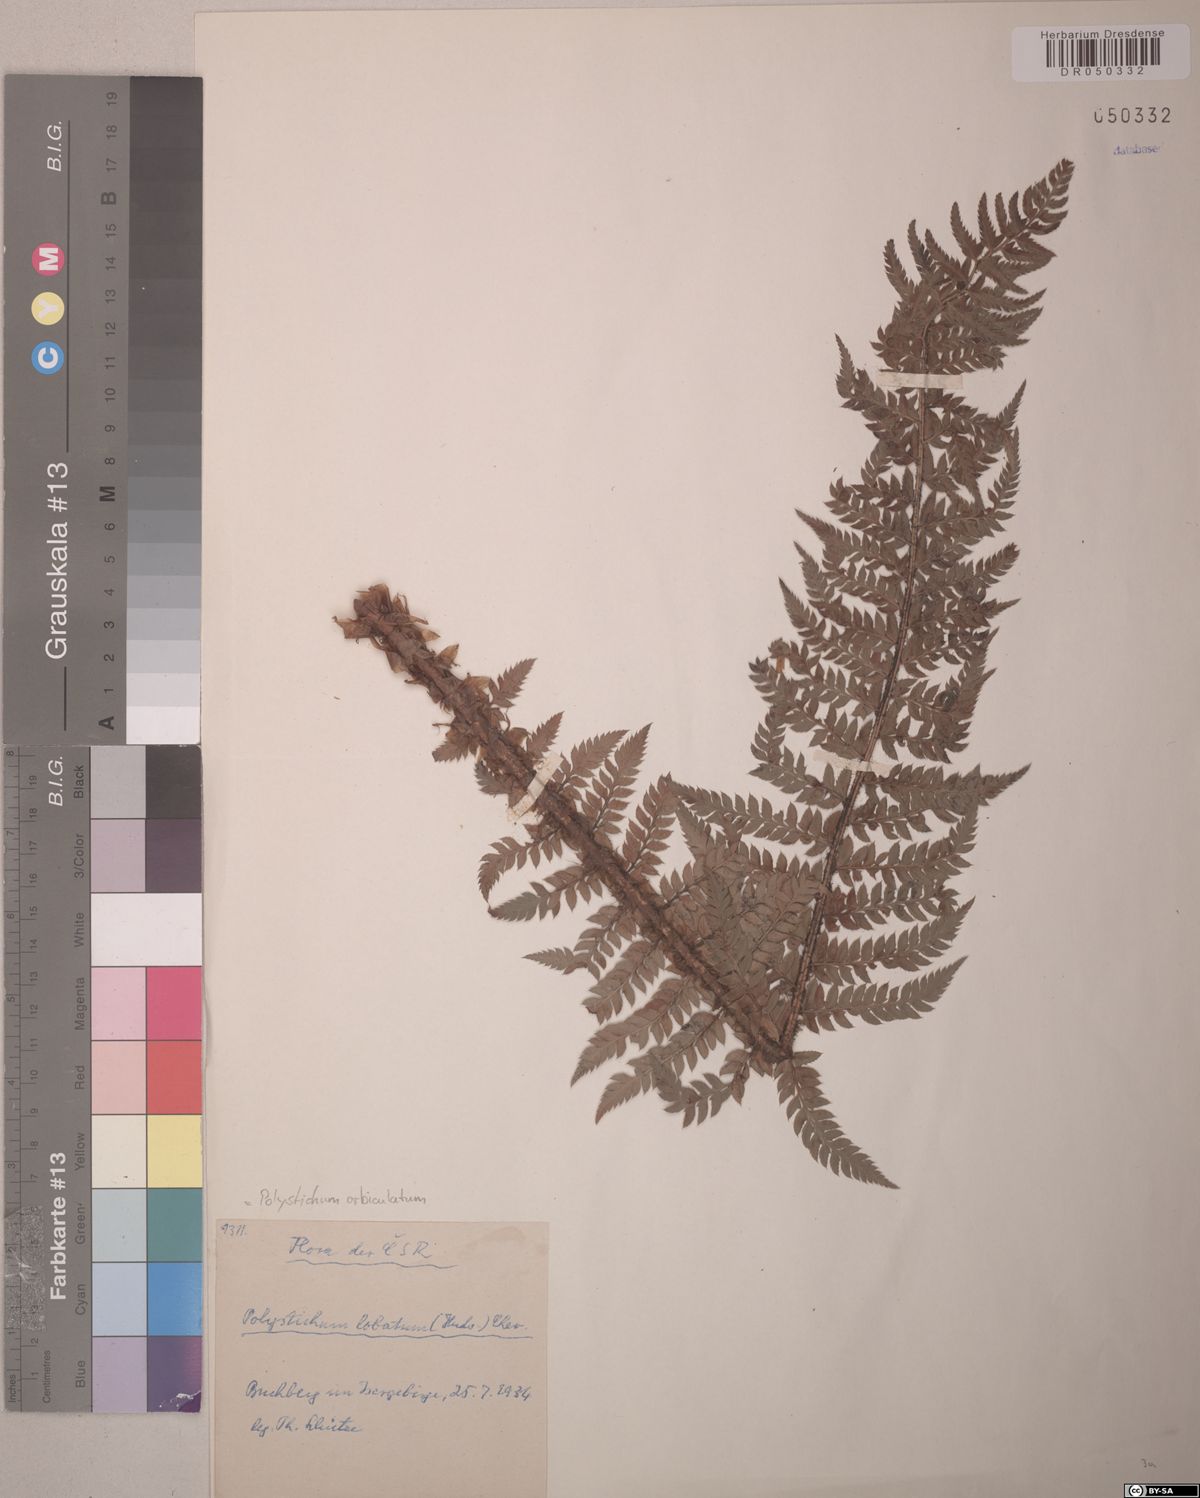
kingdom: Plantae
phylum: Tracheophyta
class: Polypodiopsida
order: Polypodiales
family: Dryopteridaceae
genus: Polystichum
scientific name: Polystichum aculeatum
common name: Hard shield-fern
